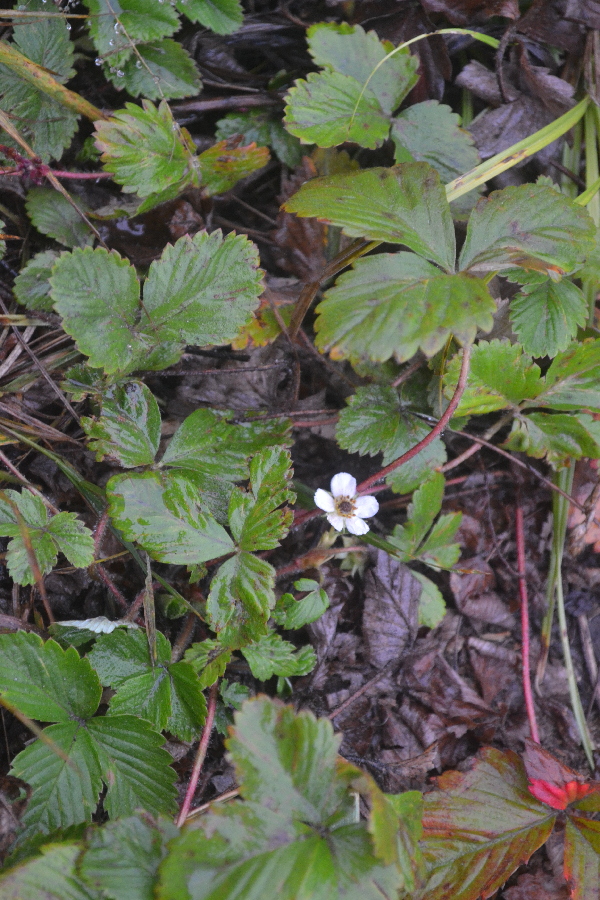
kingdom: Plantae
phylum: Tracheophyta
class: Magnoliopsida
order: Rosales
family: Rosaceae
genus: Fragaria
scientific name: Fragaria vesca
